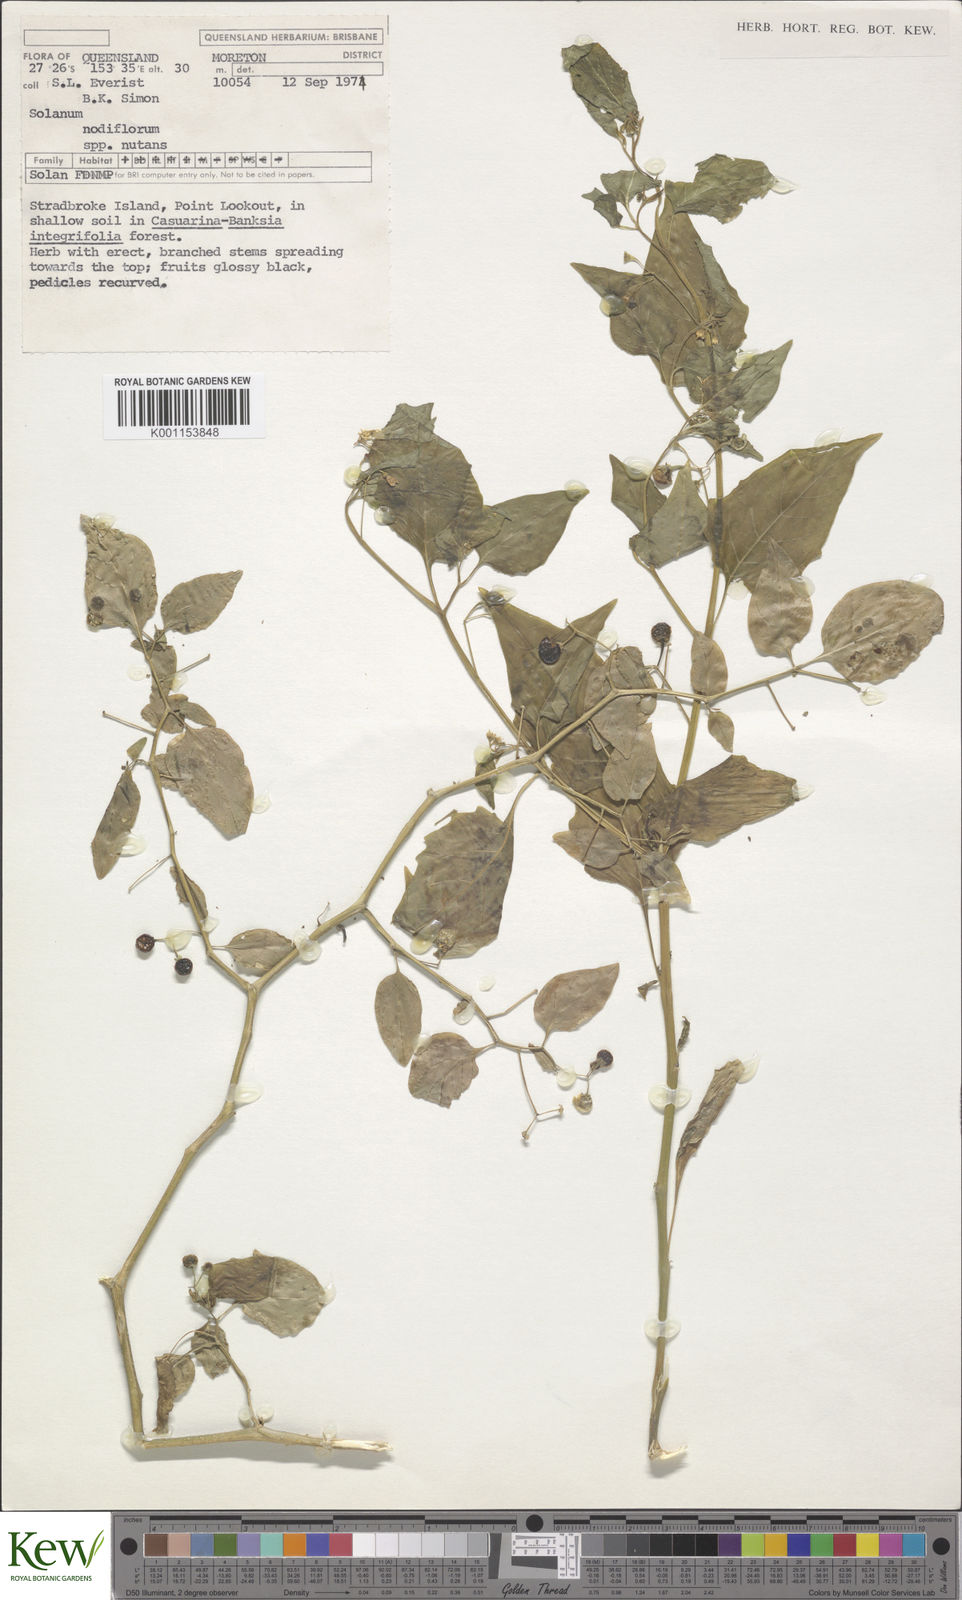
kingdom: Plantae
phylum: Tracheophyta
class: Magnoliopsida
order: Solanales
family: Solanaceae
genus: Solanum
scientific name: Solanum americanum
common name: American black nightshade
